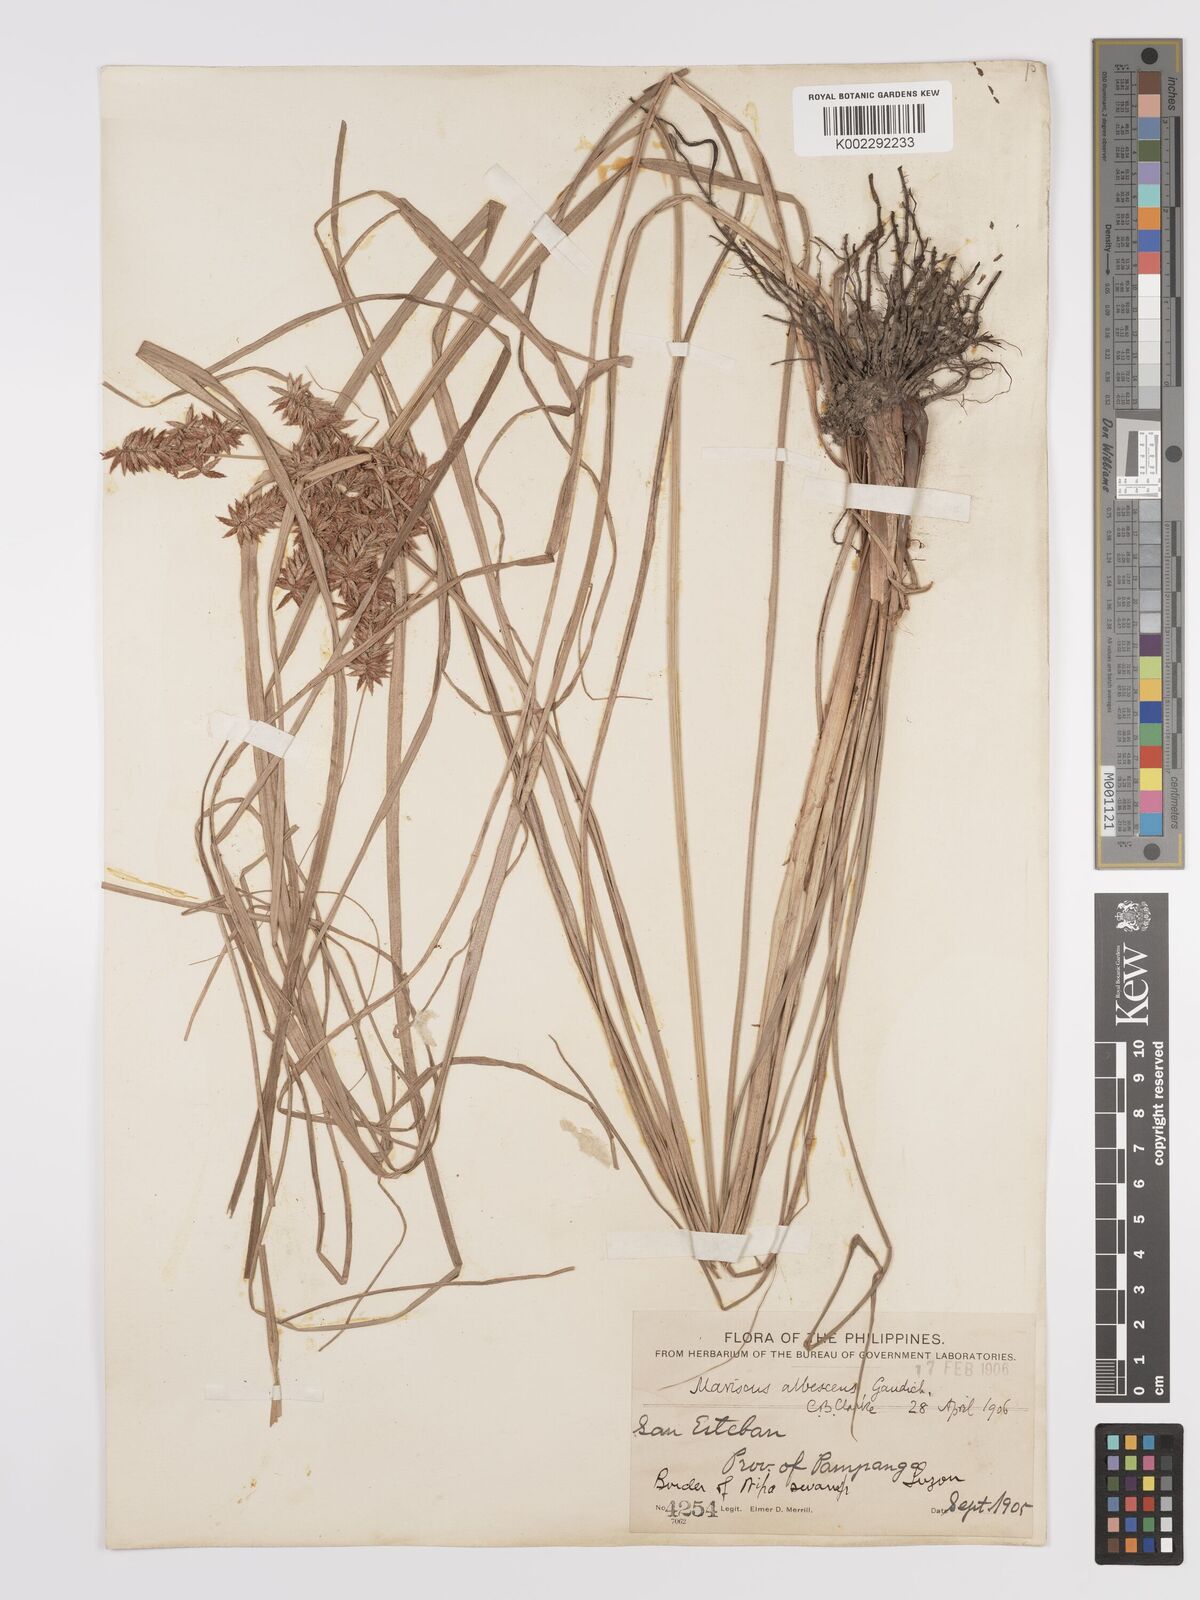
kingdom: Plantae
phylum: Tracheophyta
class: Liliopsida
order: Poales
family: Cyperaceae
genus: Cyperus
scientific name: Cyperus javanicus
